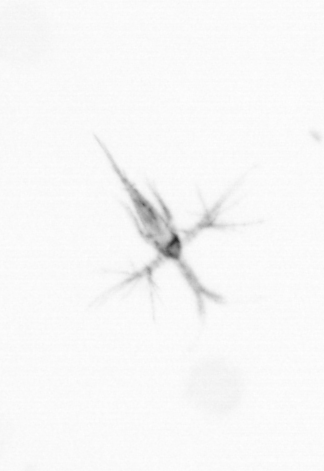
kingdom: Animalia
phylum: Arthropoda
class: Copepoda
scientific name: Copepoda
